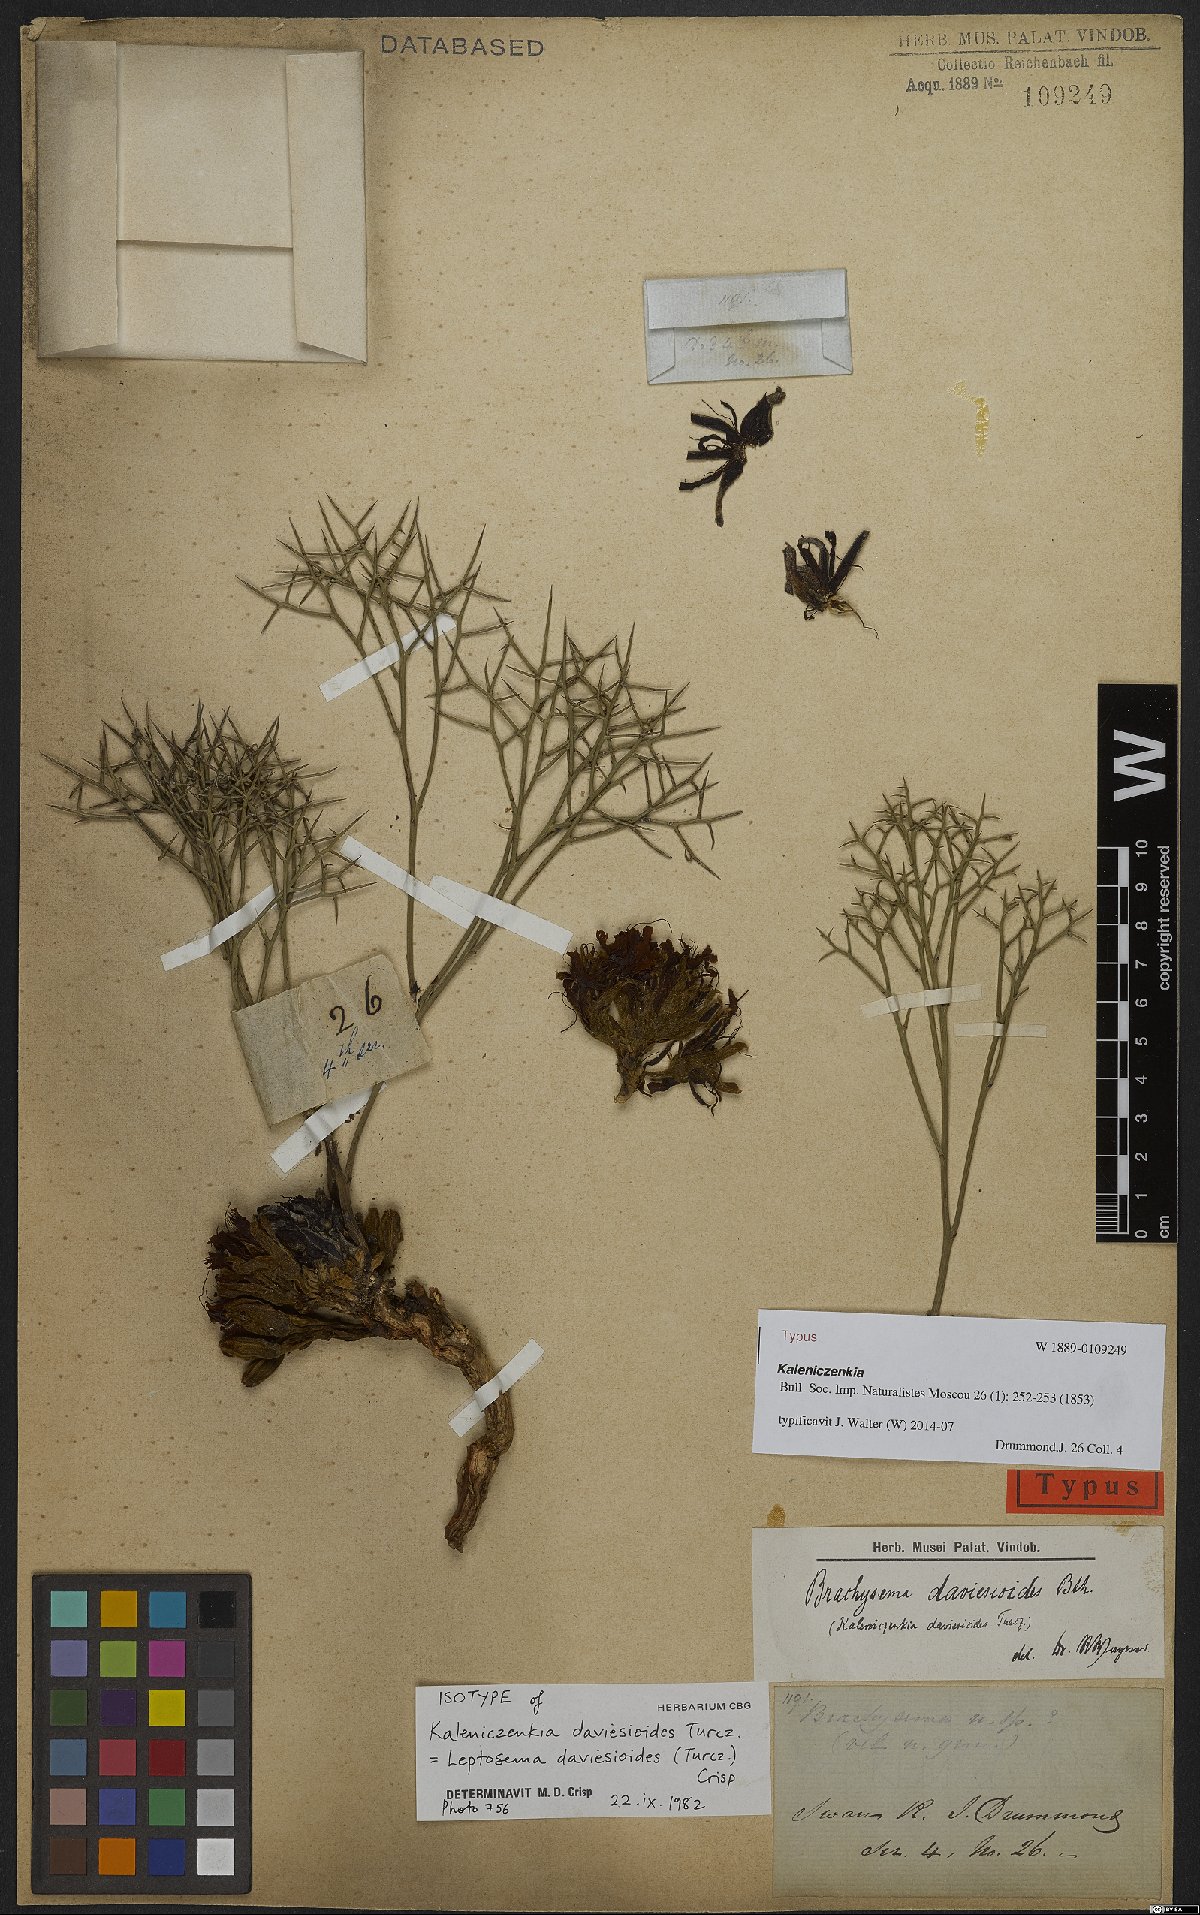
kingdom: Plantae
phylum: Tracheophyta
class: Magnoliopsida
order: Fabales
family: Fabaceae
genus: Leptosema
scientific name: Leptosema daviesioides
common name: Upside-down pea-bush
